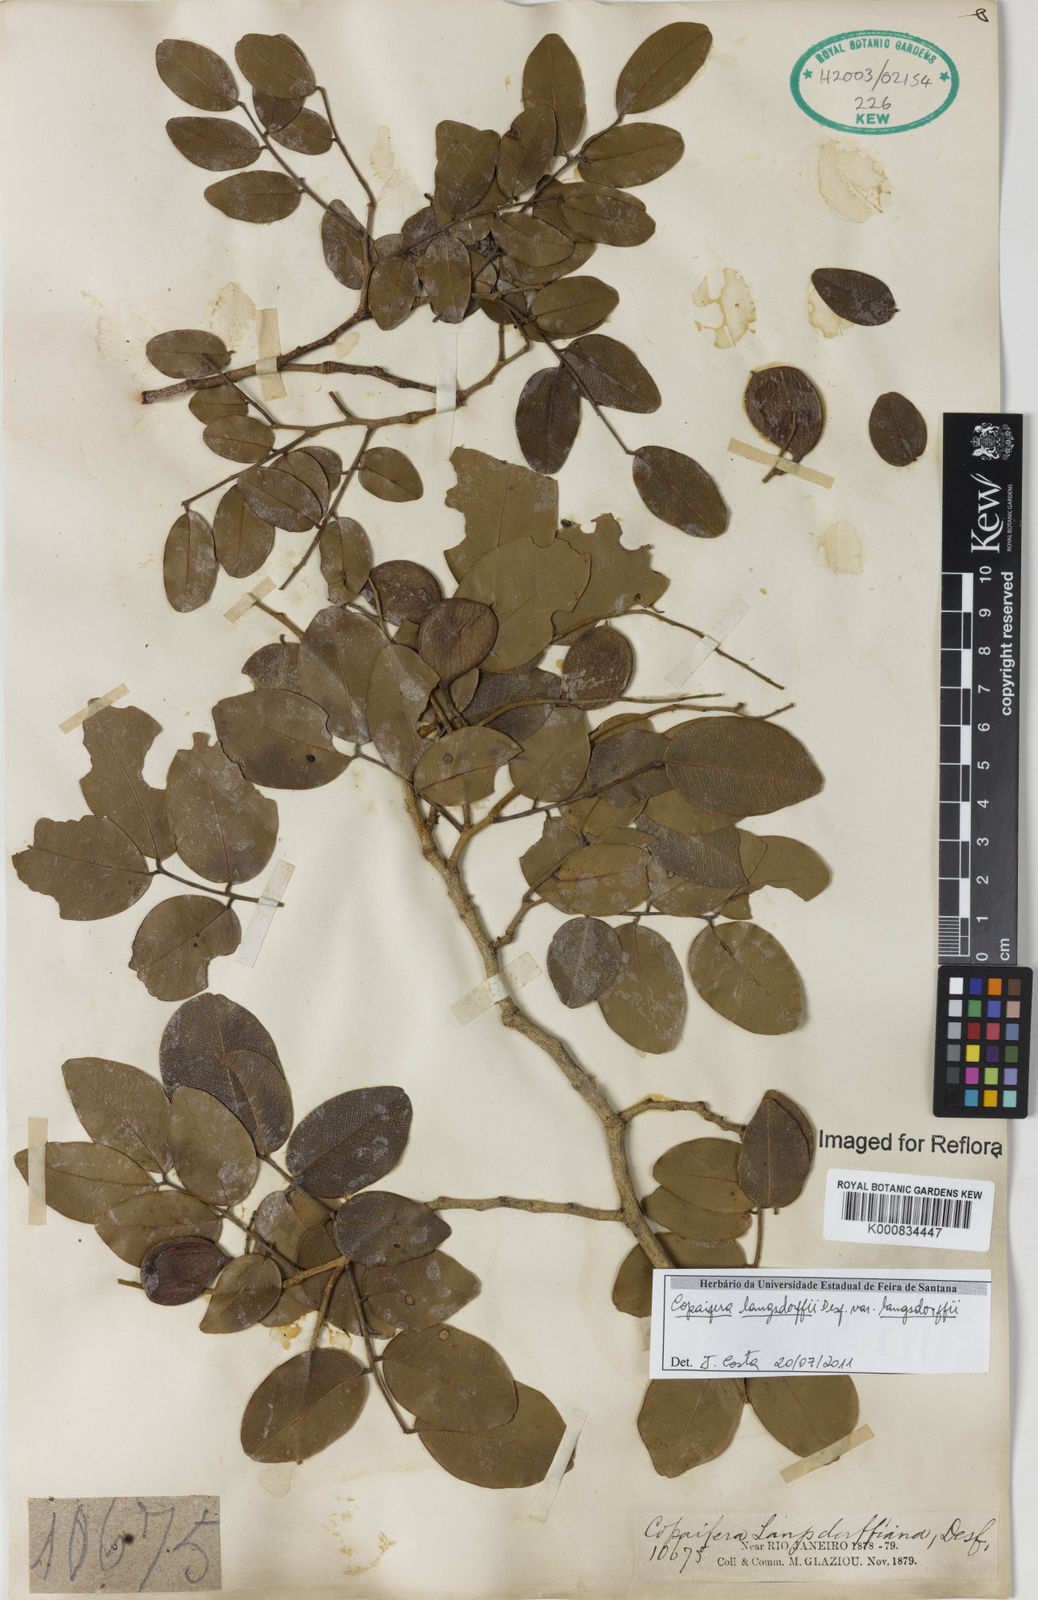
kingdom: Plantae
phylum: Tracheophyta
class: Magnoliopsida
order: Fabales
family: Fabaceae
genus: Copaifera
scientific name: Copaifera langsdorffii
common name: Brazilian diesel tree
